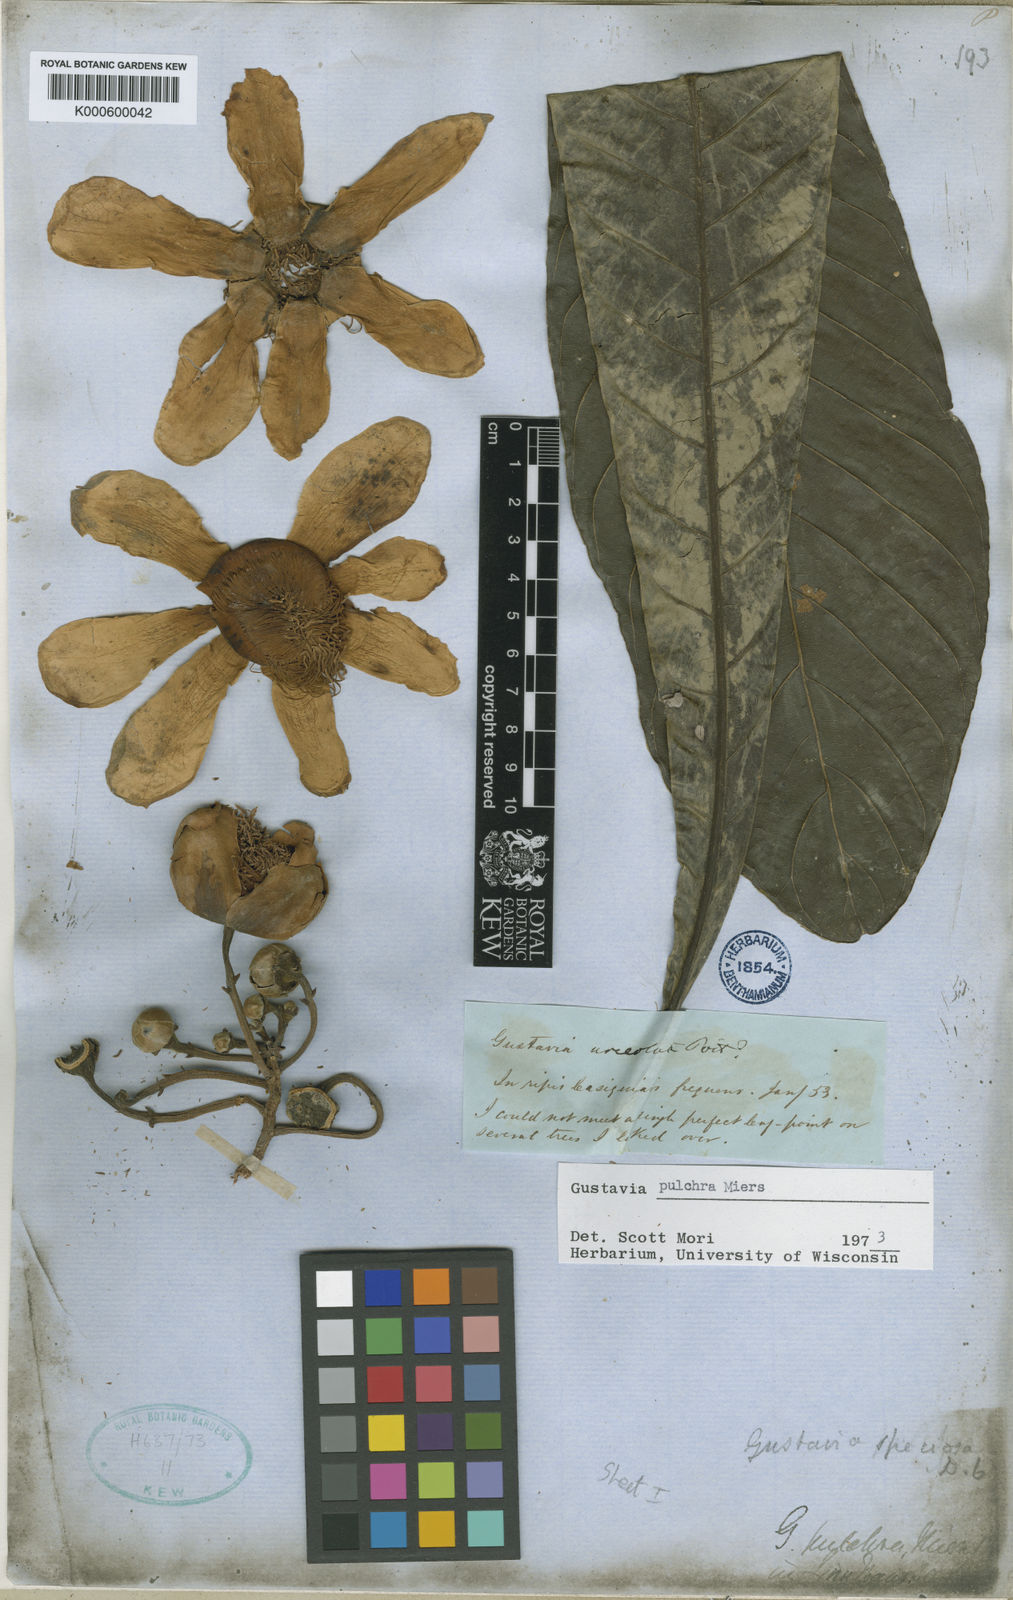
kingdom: Plantae
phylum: Tracheophyta
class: Magnoliopsida
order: Ericales
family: Lecythidaceae
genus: Gustavia
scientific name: Gustavia pulchra
